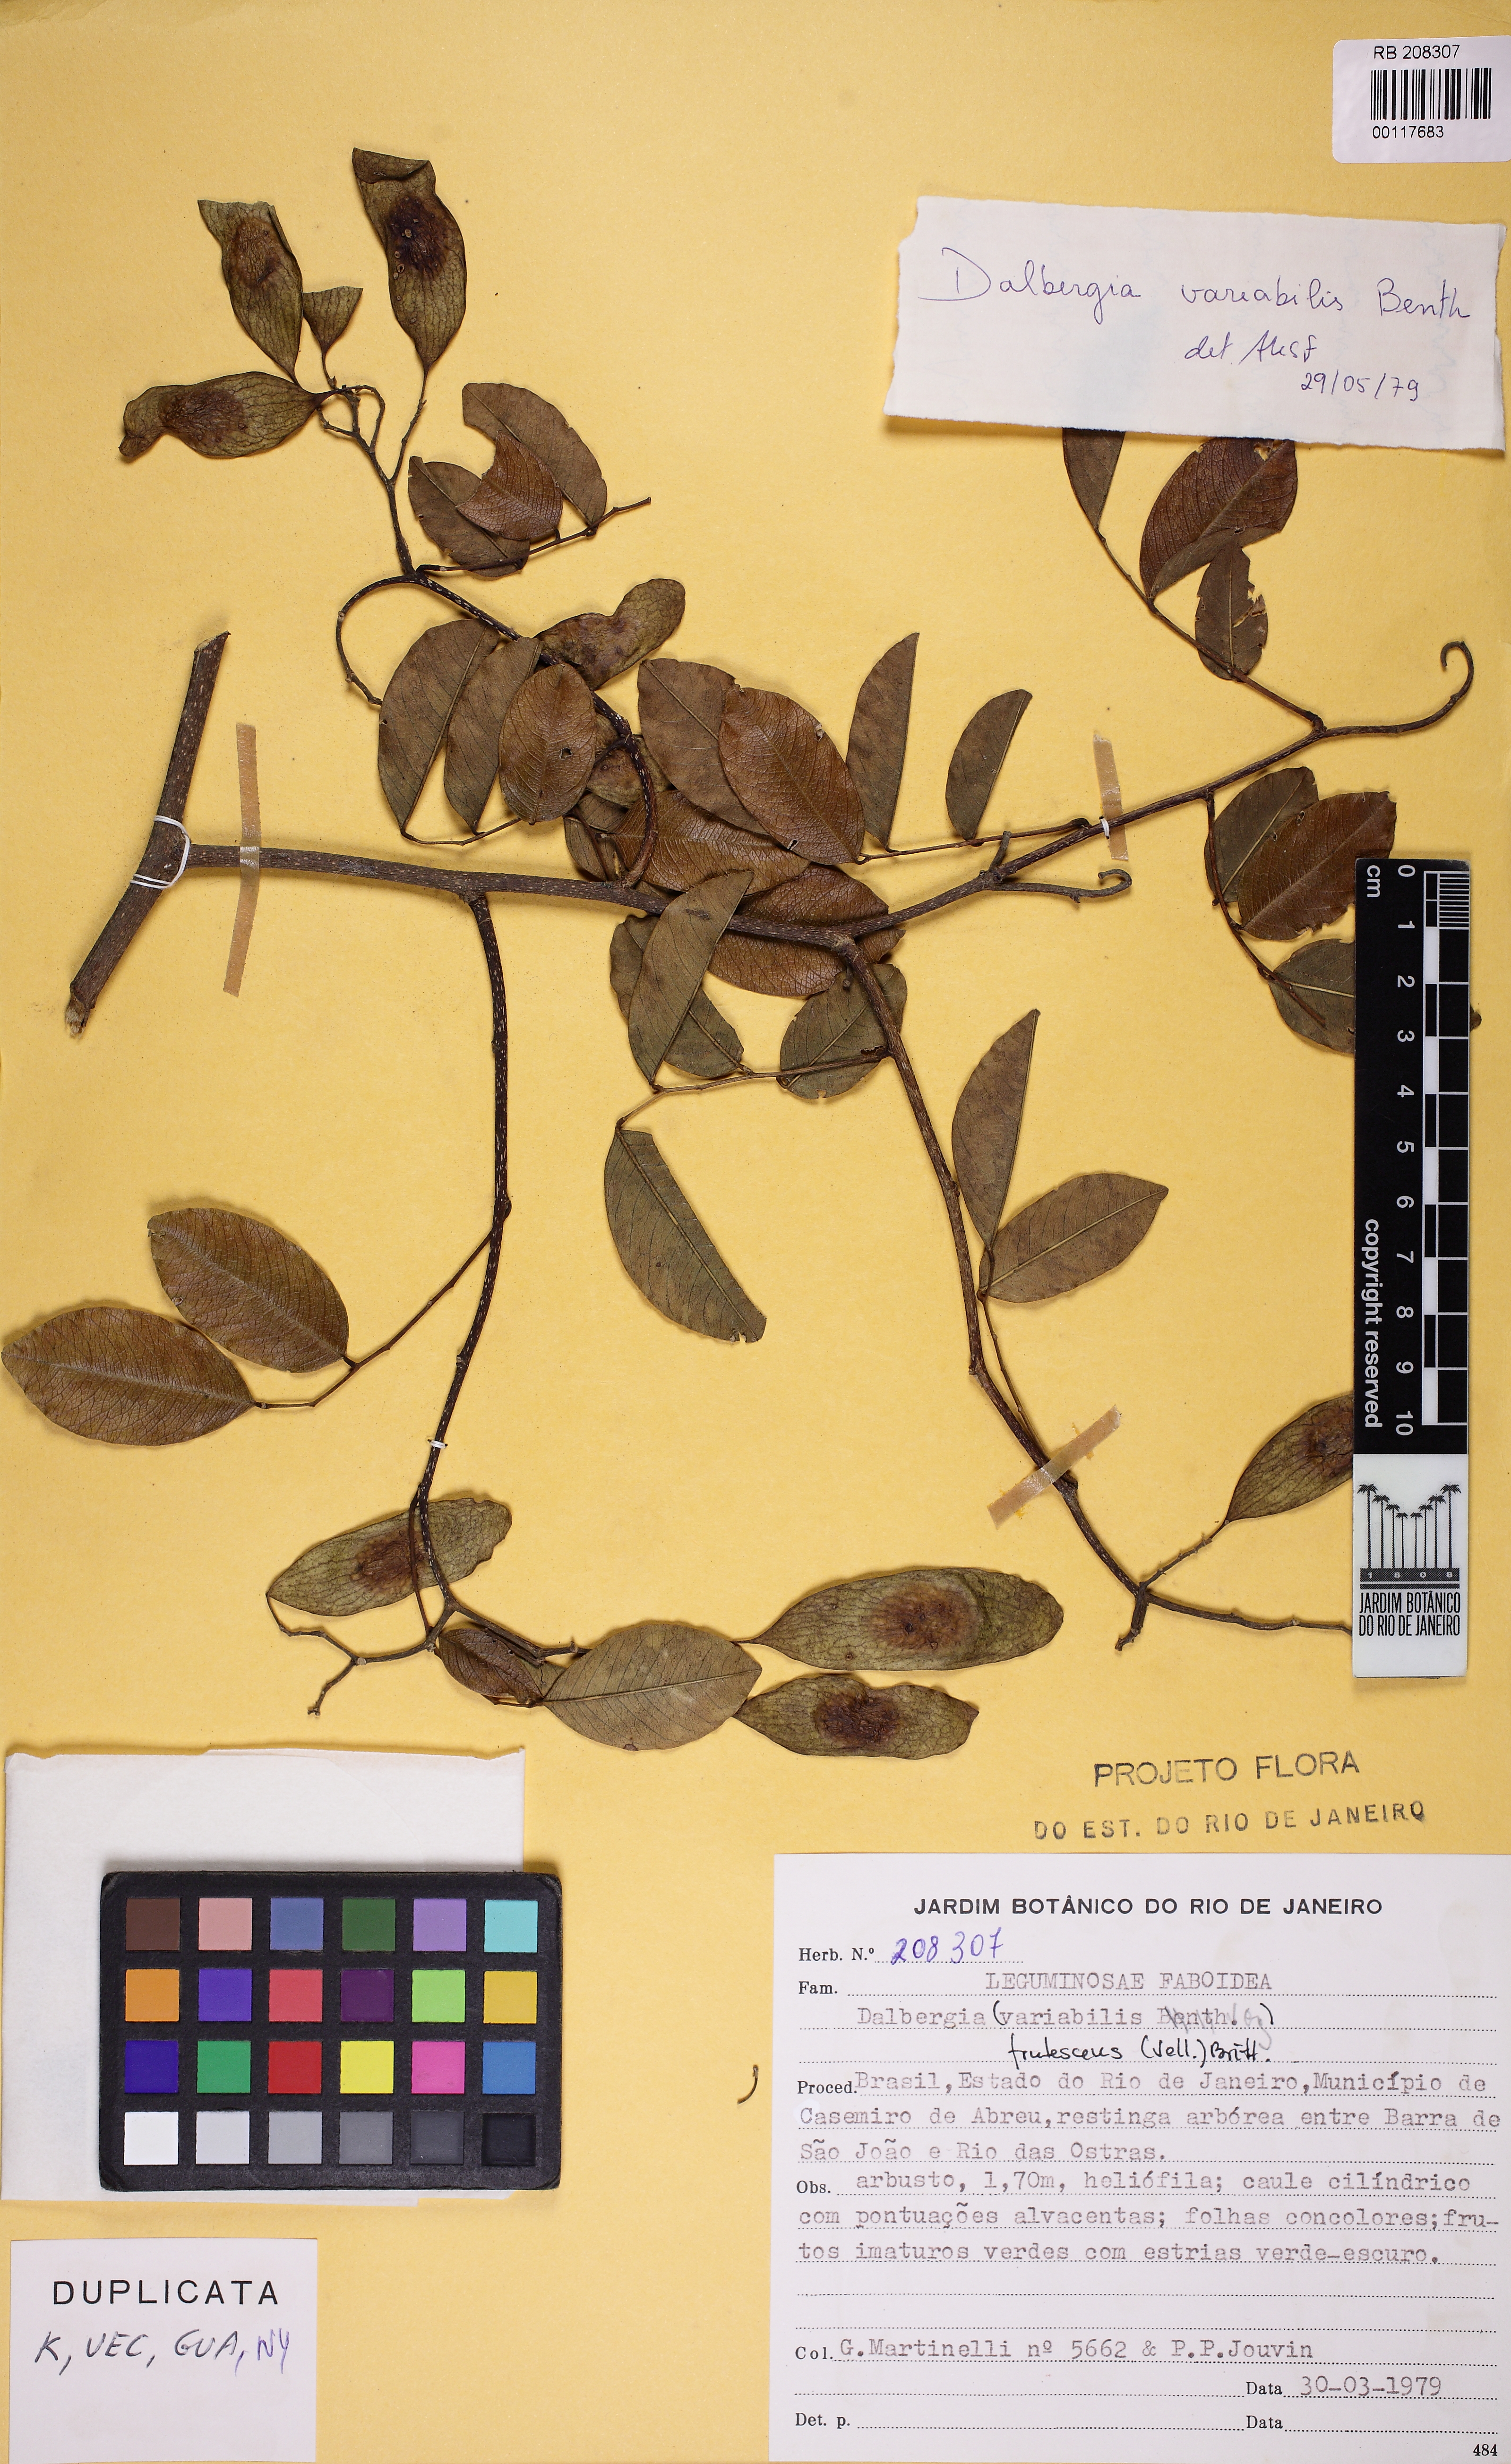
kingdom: Plantae
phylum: Tracheophyta
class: Magnoliopsida
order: Fabales
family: Fabaceae
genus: Dalbergia
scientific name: Dalbergia frutescens
